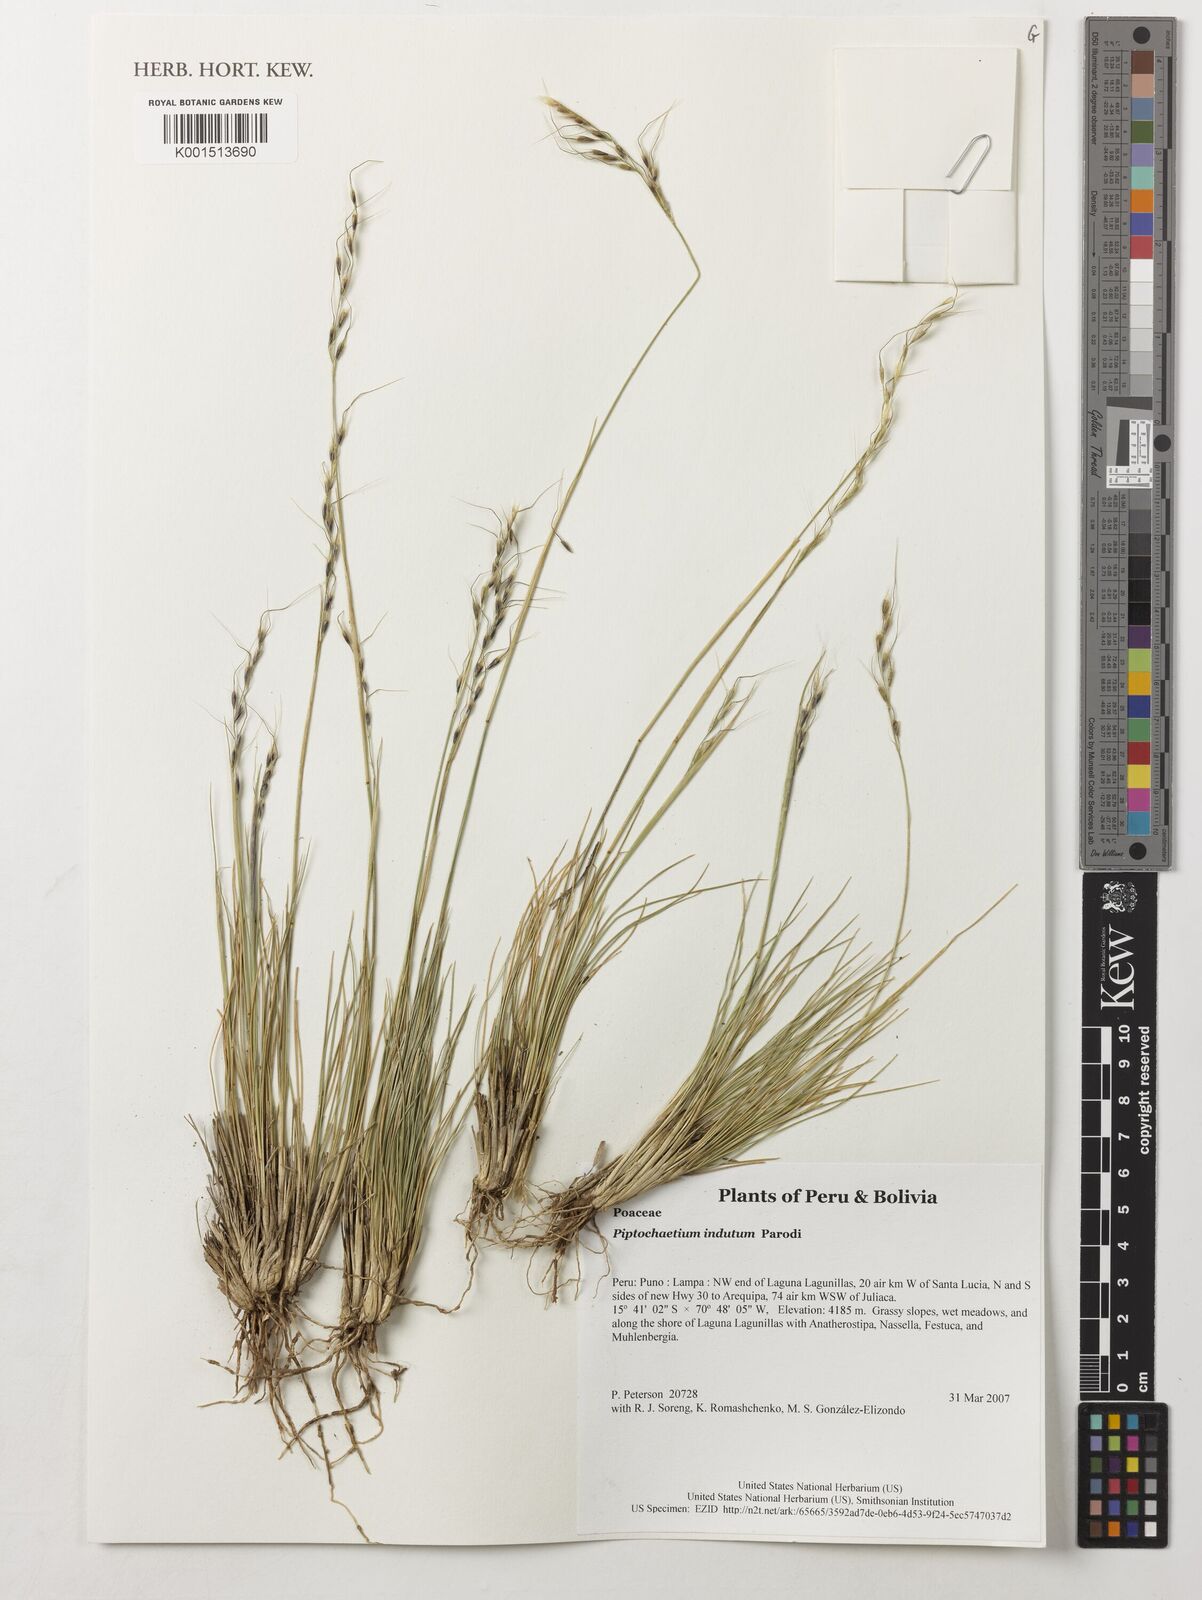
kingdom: Plantae
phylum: Tracheophyta
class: Liliopsida
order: Poales
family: Poaceae
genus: Piptochaetium
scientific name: Piptochaetium indutum
